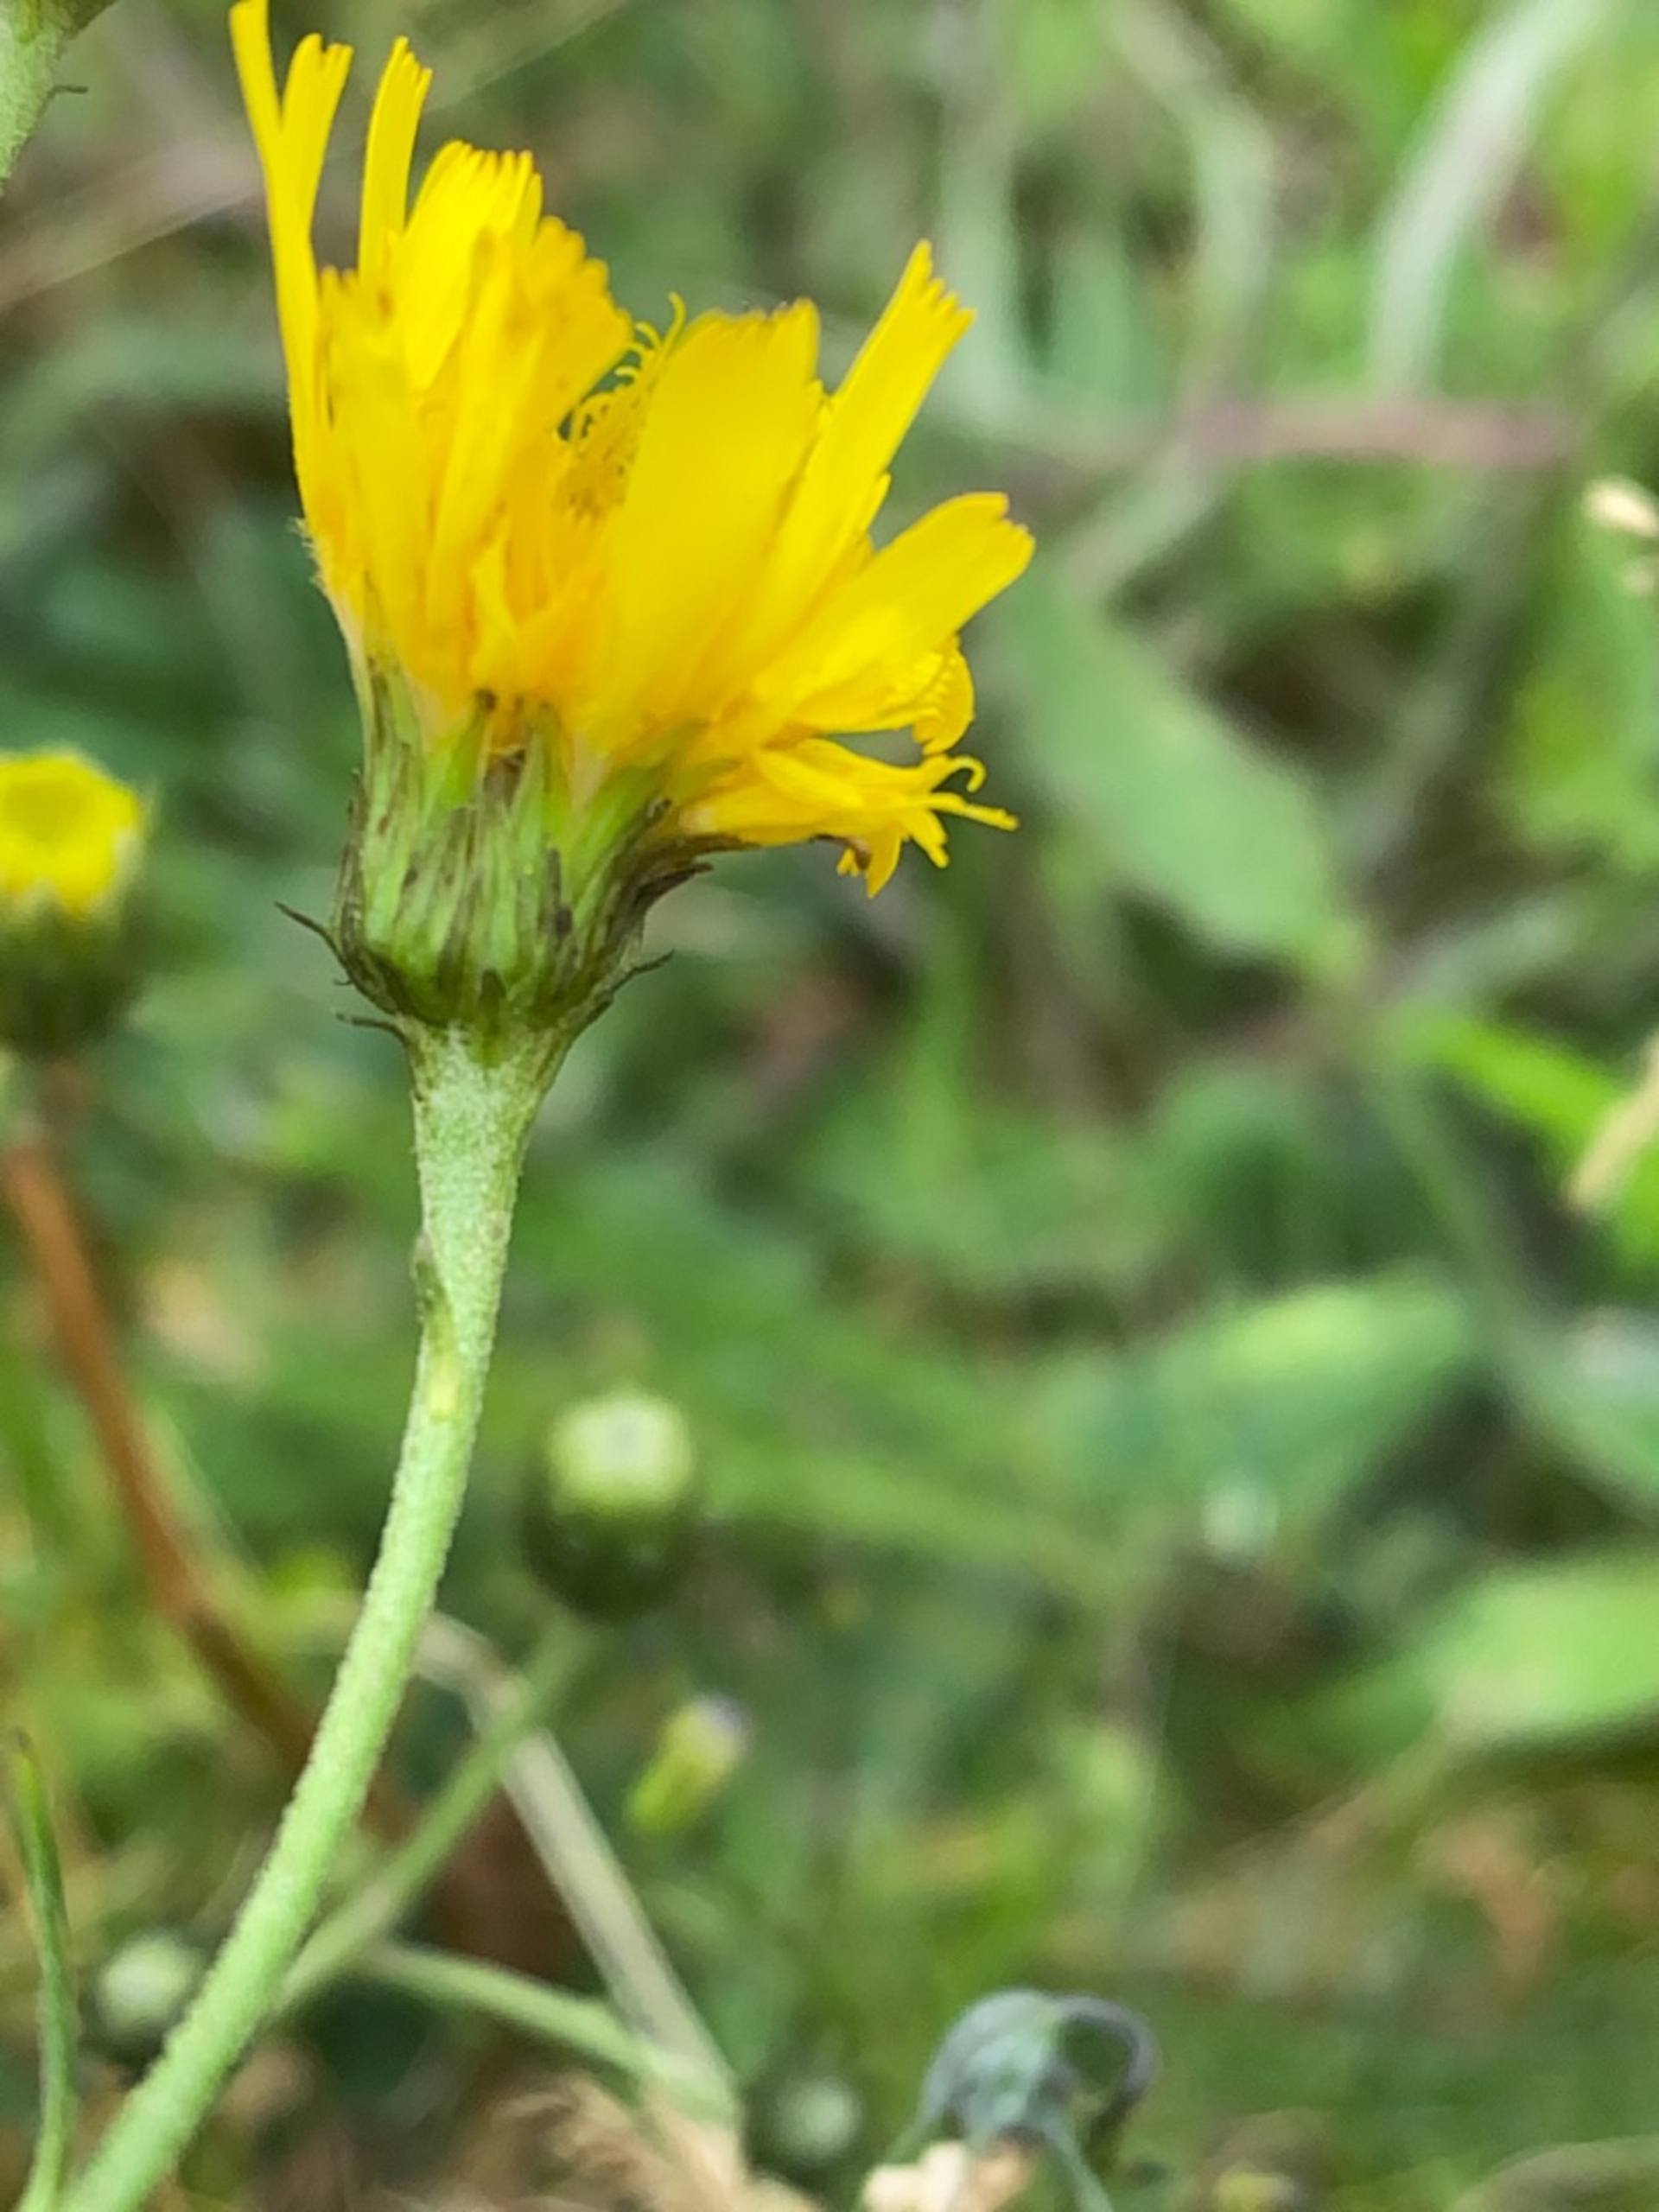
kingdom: Plantae
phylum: Tracheophyta
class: Magnoliopsida
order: Asterales
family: Asteraceae
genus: Hieracium
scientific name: Hieracium umbellatum
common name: Smalbladet høgeurt
